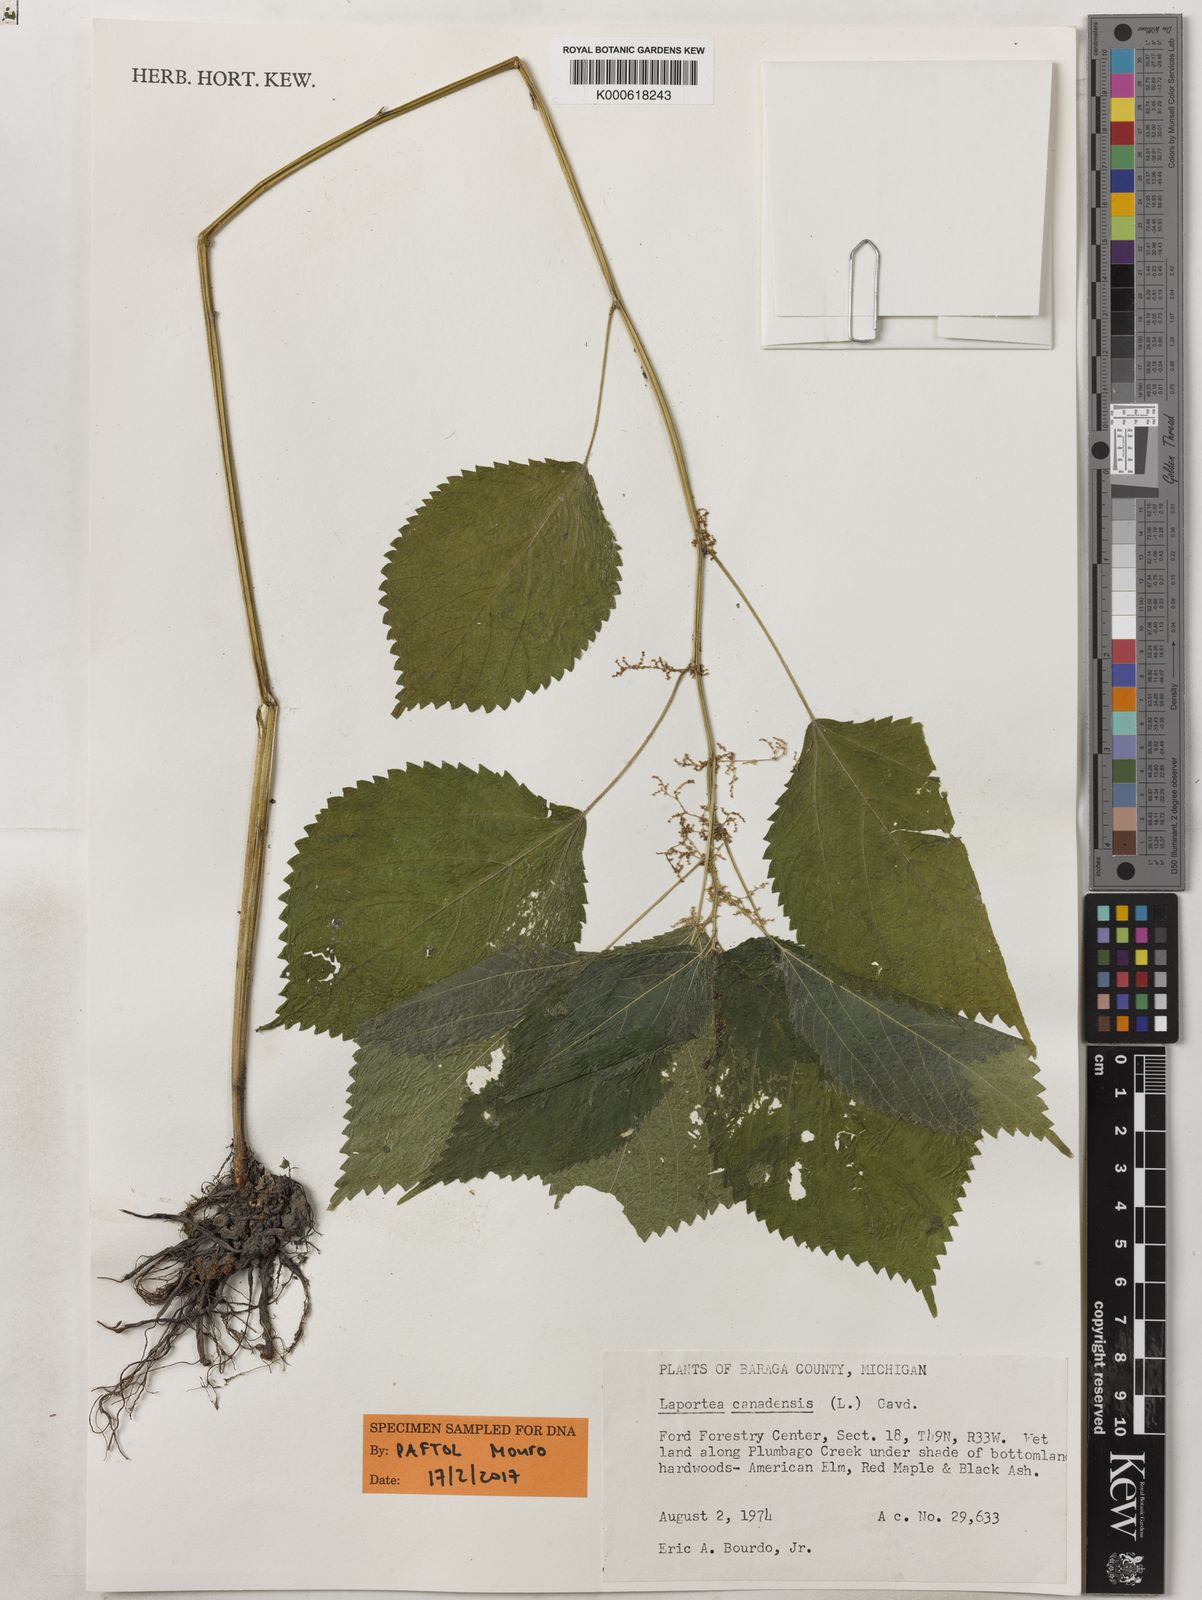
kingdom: Plantae
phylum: Tracheophyta
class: Magnoliopsida
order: Rosales
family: Urticaceae
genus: Laportea
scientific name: Laportea canadensis
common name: Canada nettle
